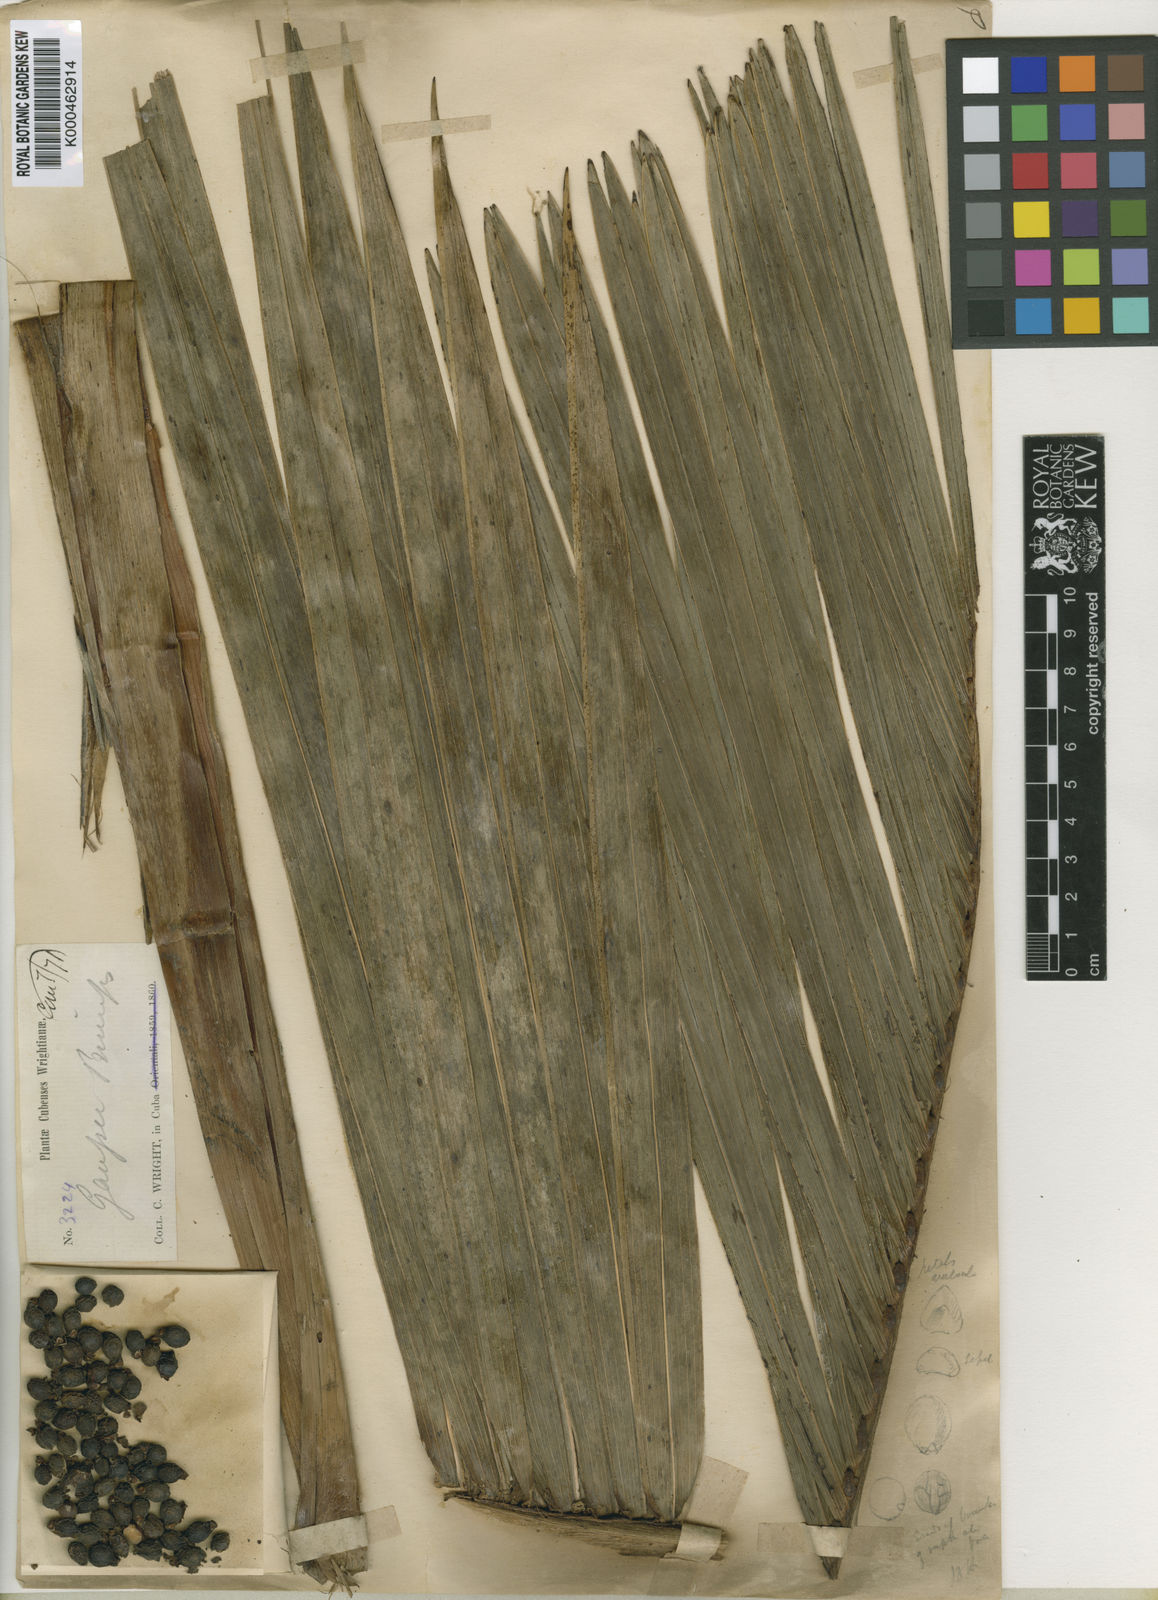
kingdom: Plantae
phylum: Tracheophyta
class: Liliopsida
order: Arecales
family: Arecaceae
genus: Gaussia
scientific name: Gaussia princeps
